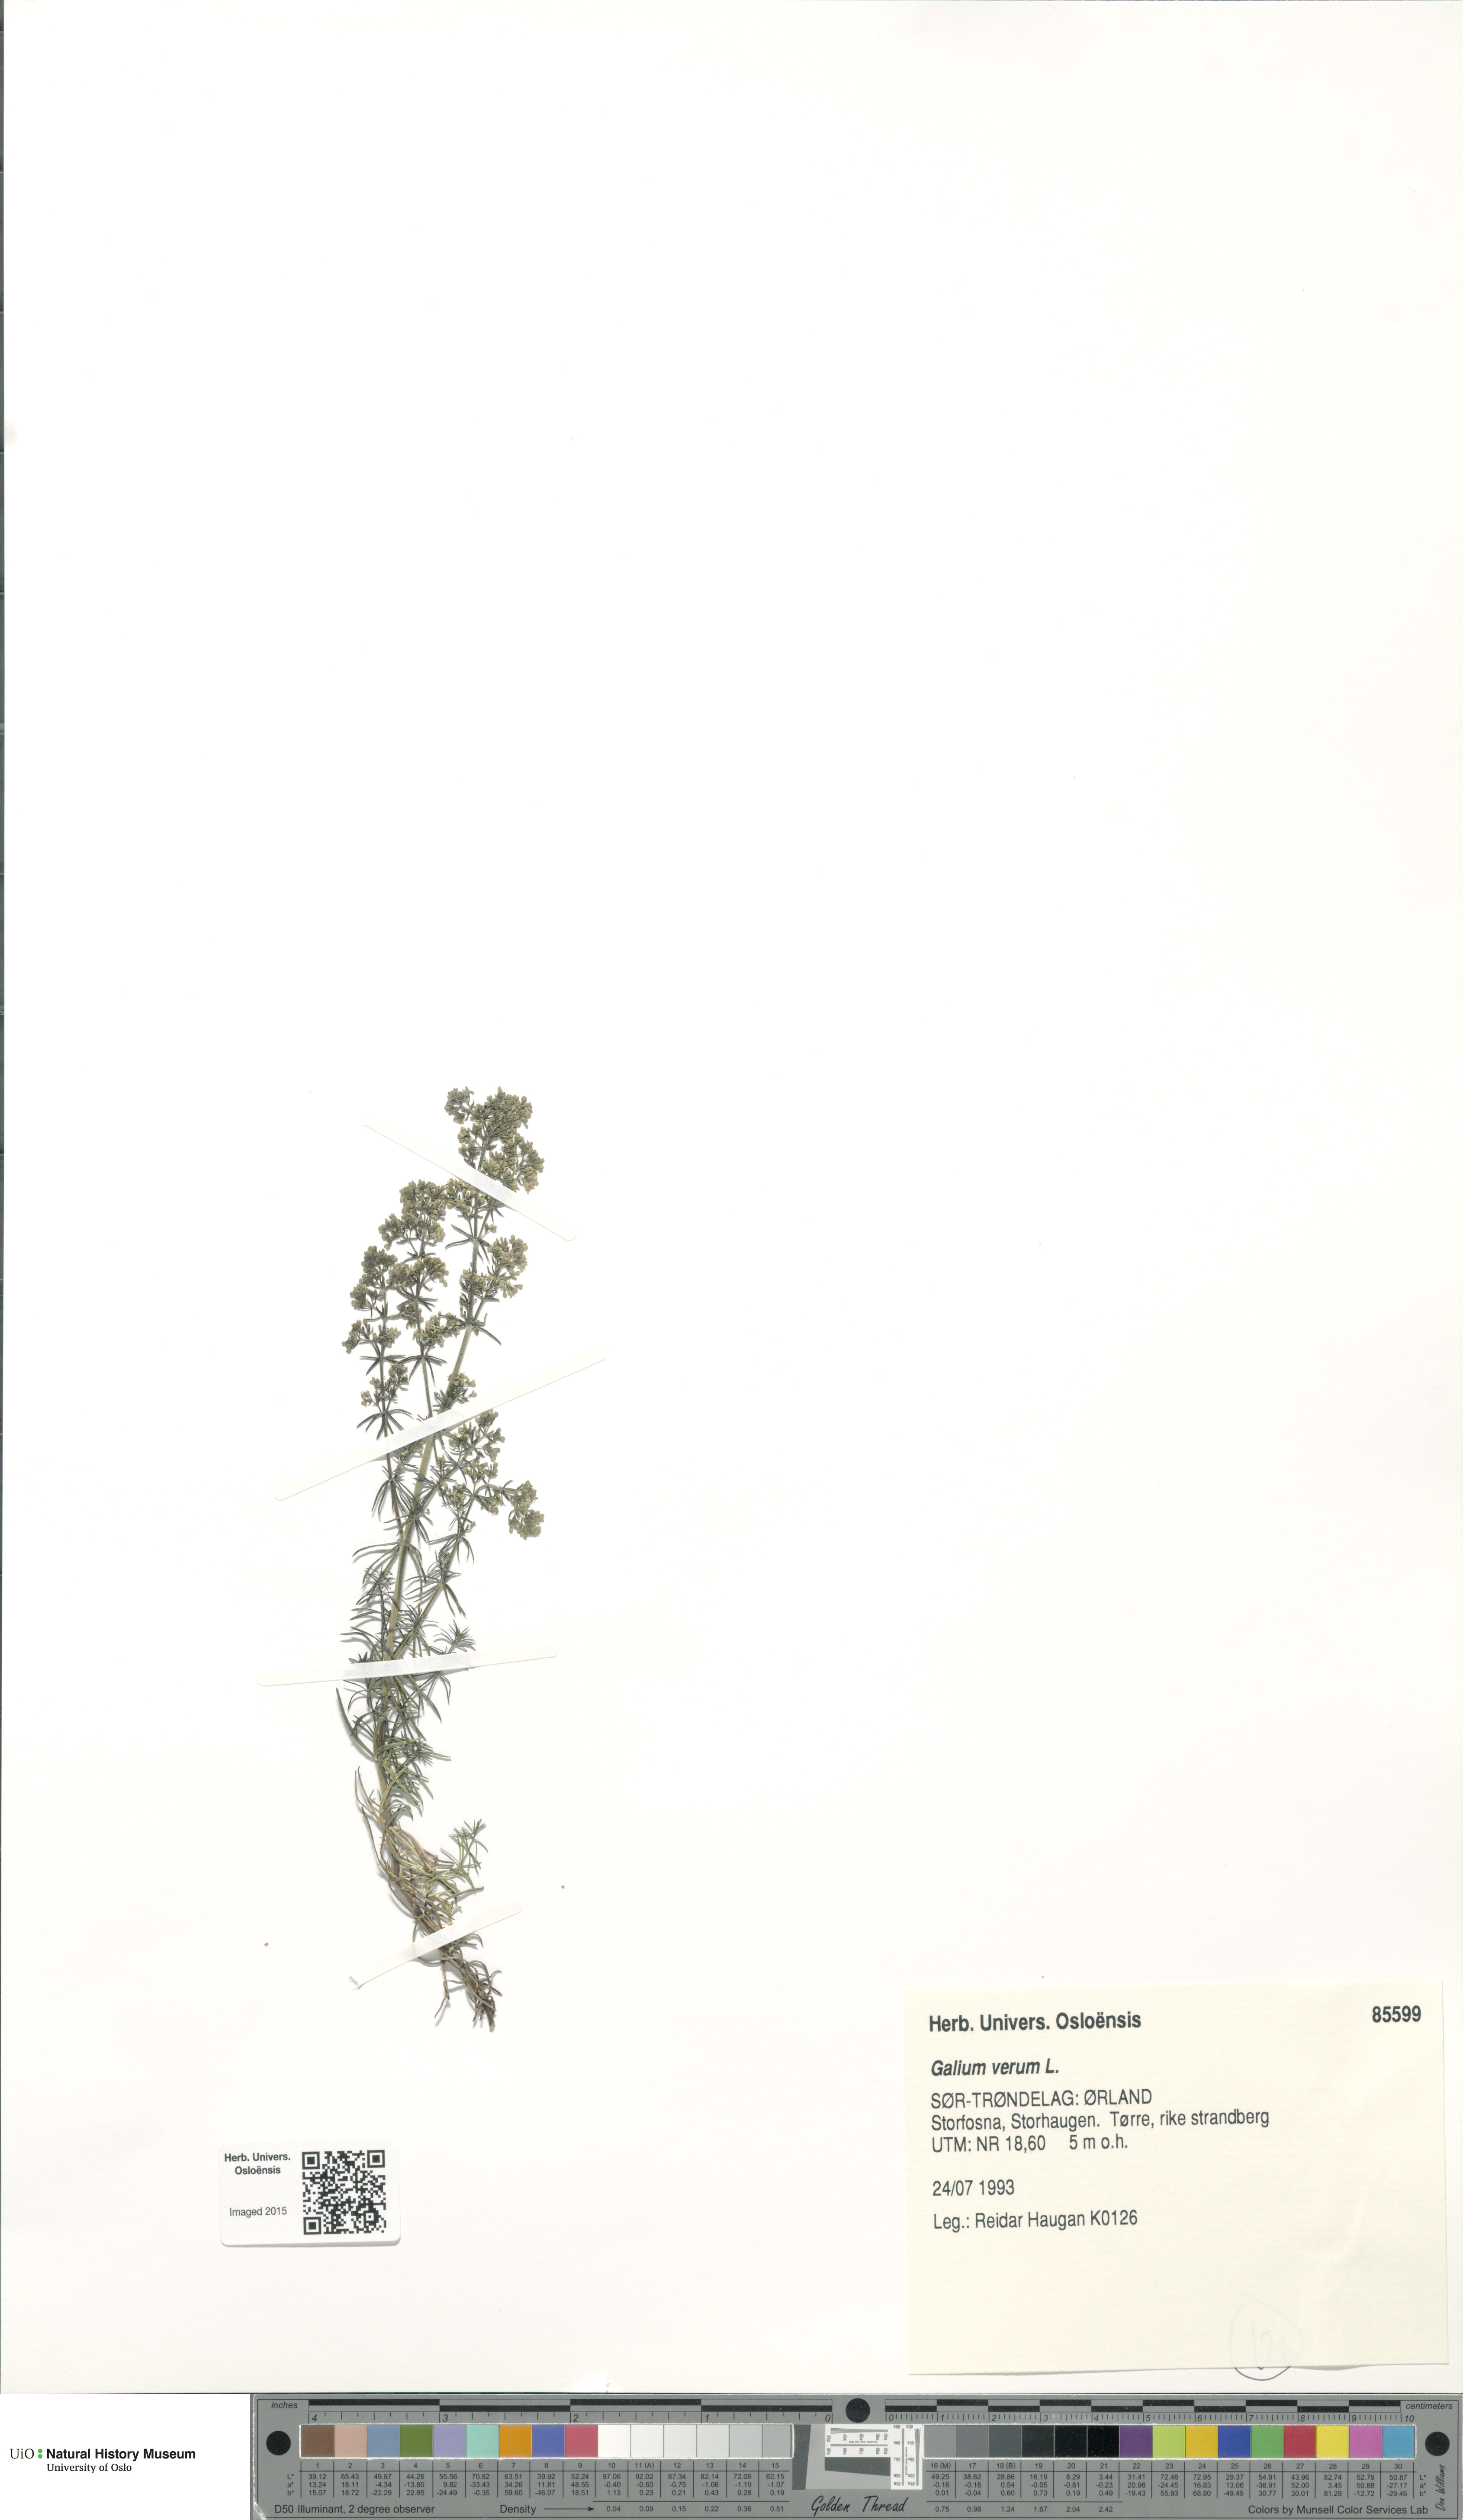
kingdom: Plantae
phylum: Tracheophyta
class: Magnoliopsida
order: Gentianales
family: Rubiaceae
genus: Galium
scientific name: Galium verum
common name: Lady's bedstraw
